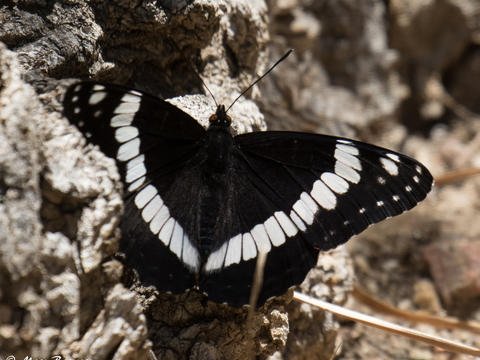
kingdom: Animalia
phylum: Arthropoda
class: Insecta
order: Lepidoptera
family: Nymphalidae
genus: Limenitis
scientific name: Limenitis weidemeyerii
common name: Weidemeyer's Admiral
